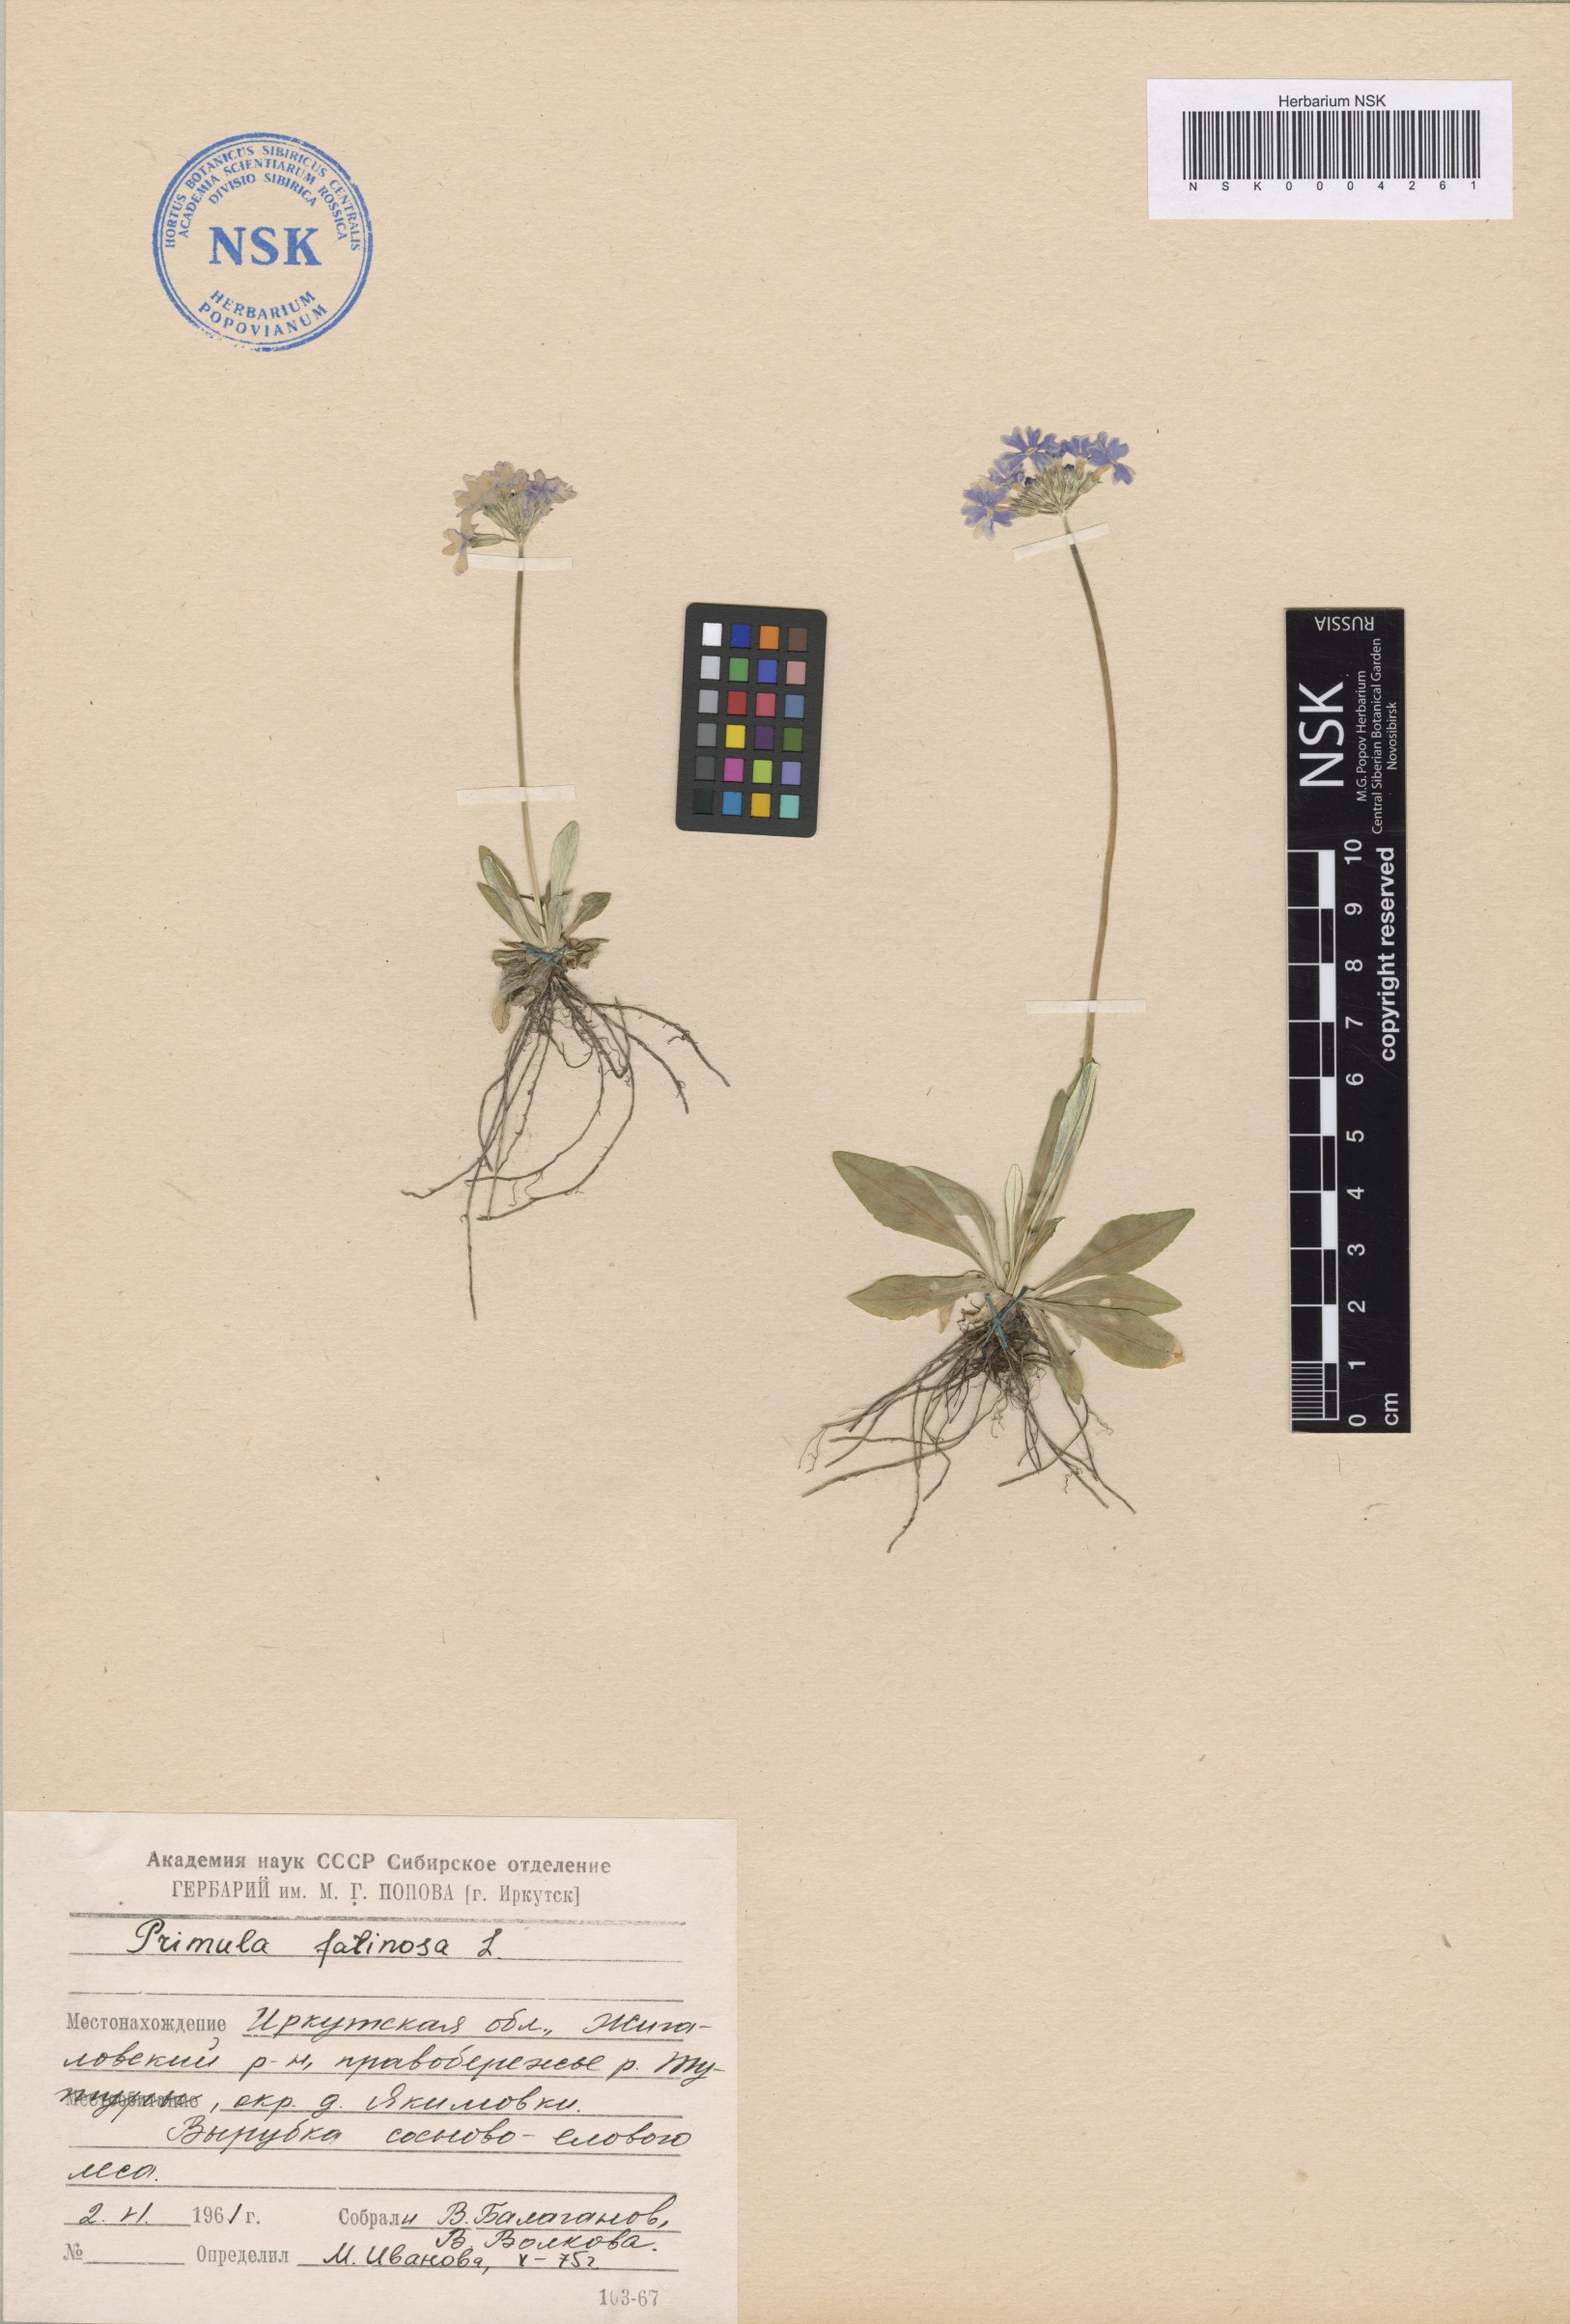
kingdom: Plantae
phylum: Tracheophyta
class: Magnoliopsida
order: Ericales
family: Primulaceae
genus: Primula
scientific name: Primula farinosa
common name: Bird's-eye primrose
